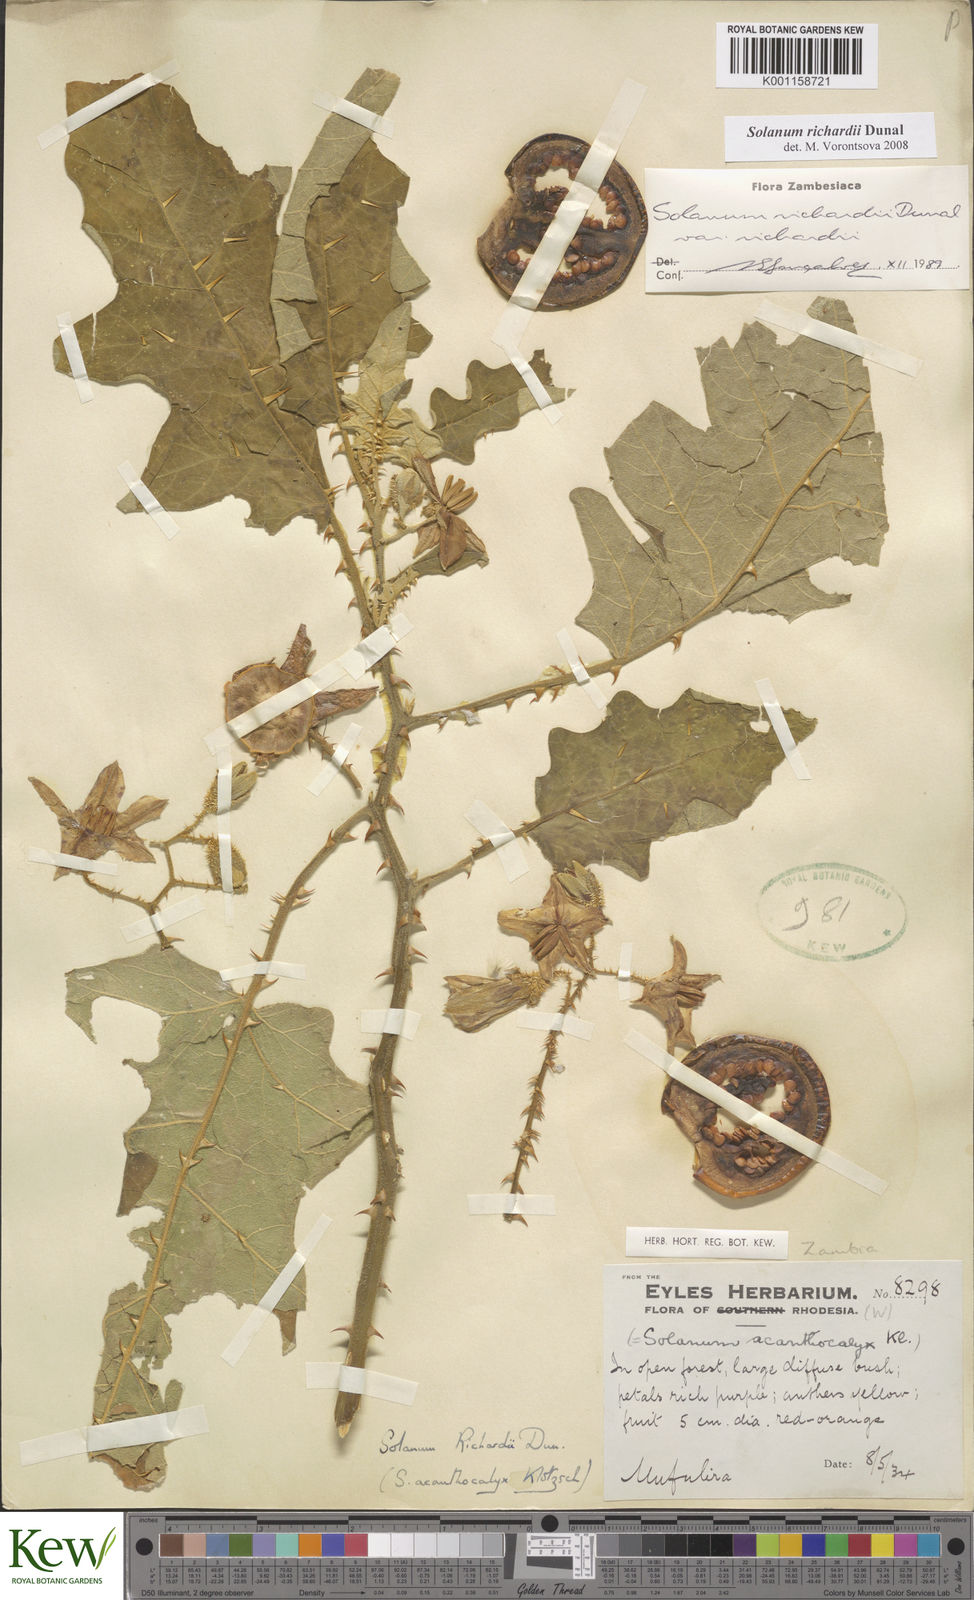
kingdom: Plantae
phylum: Tracheophyta
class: Magnoliopsida
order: Solanales
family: Solanaceae
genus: Solanum
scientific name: Solanum richardii
